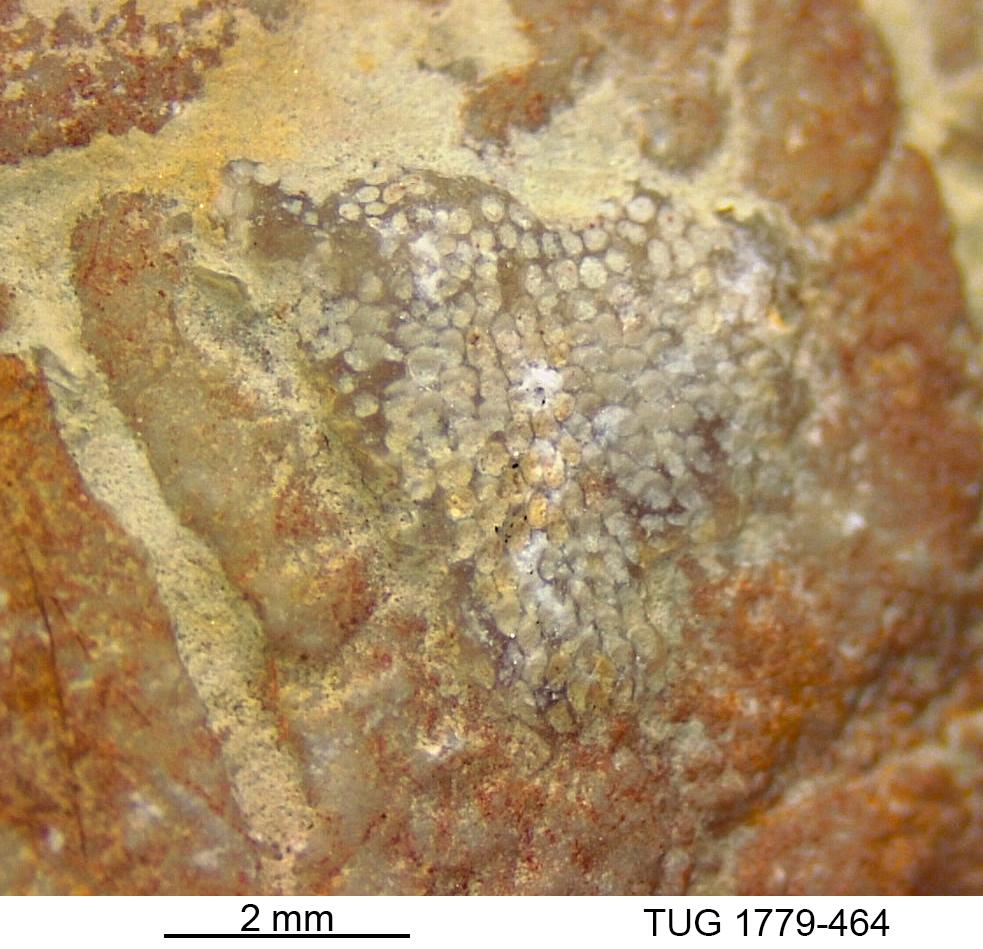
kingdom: Animalia
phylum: Bryozoa
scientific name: Bryozoa
